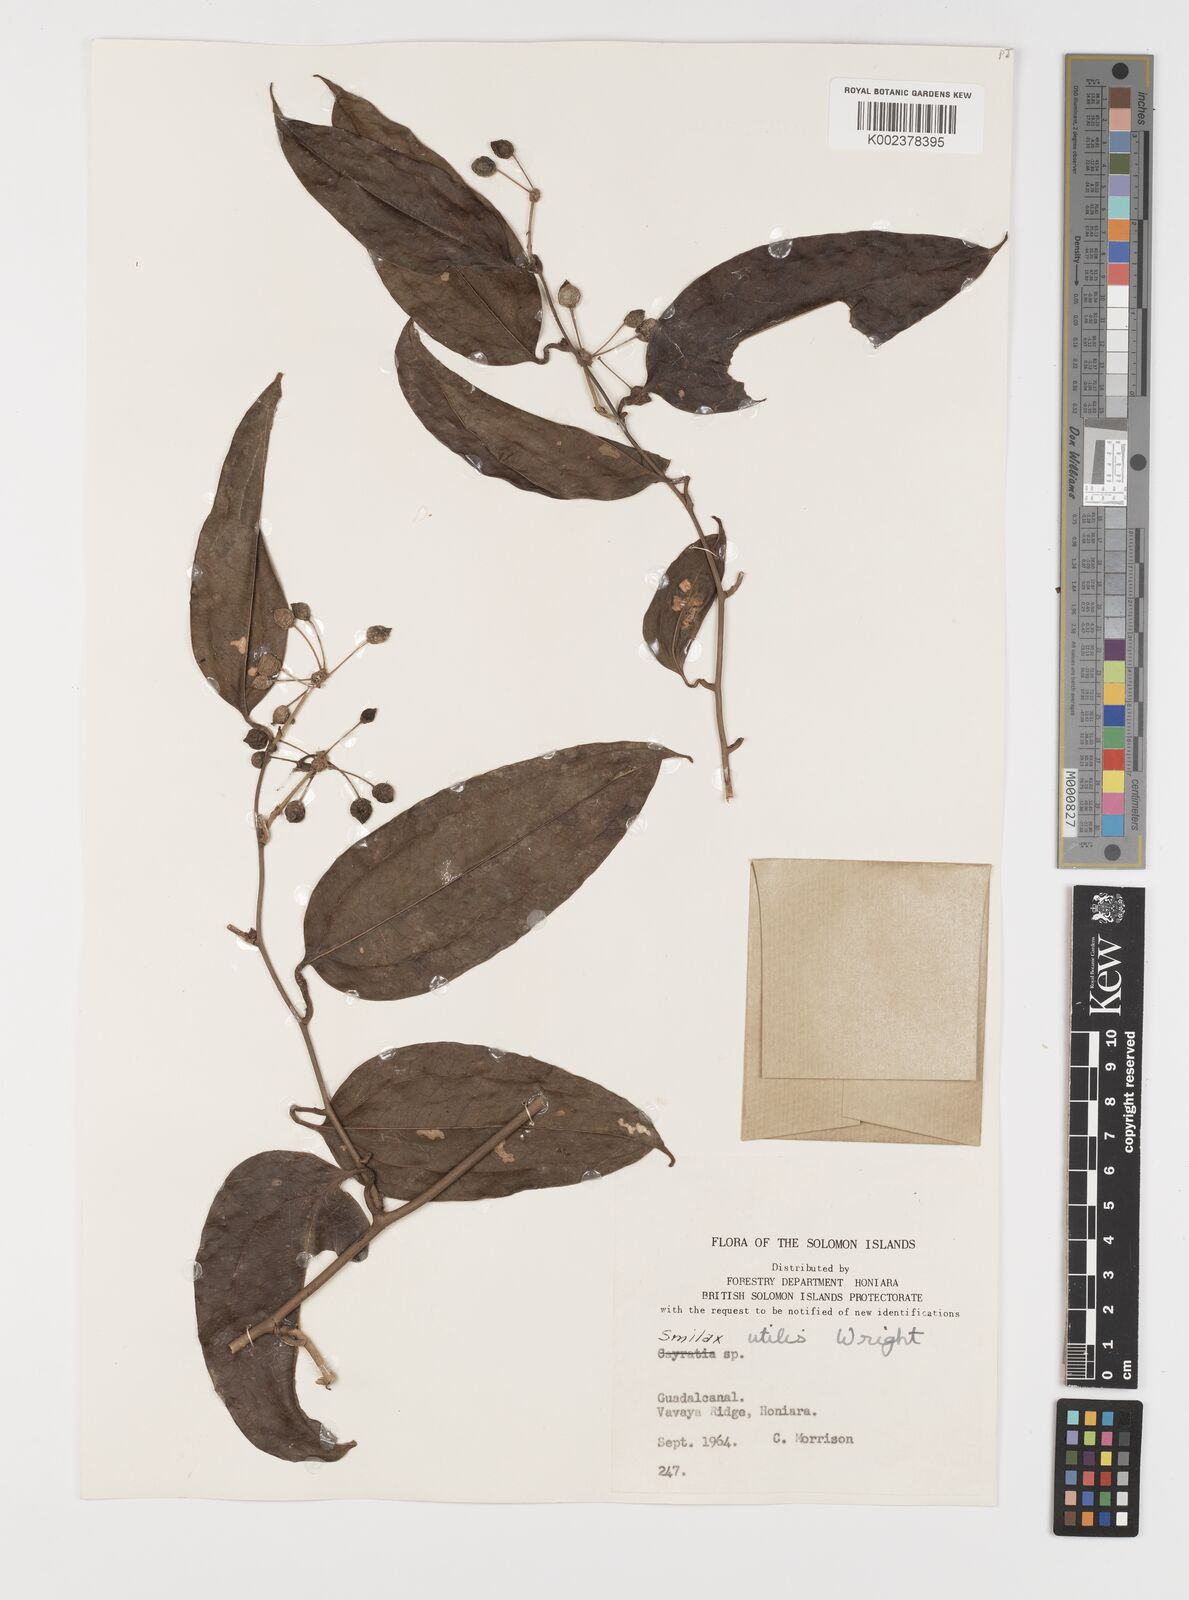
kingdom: Plantae
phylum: Tracheophyta
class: Liliopsida
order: Liliales
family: Smilacaceae
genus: Smilax
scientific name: Smilax ornata
